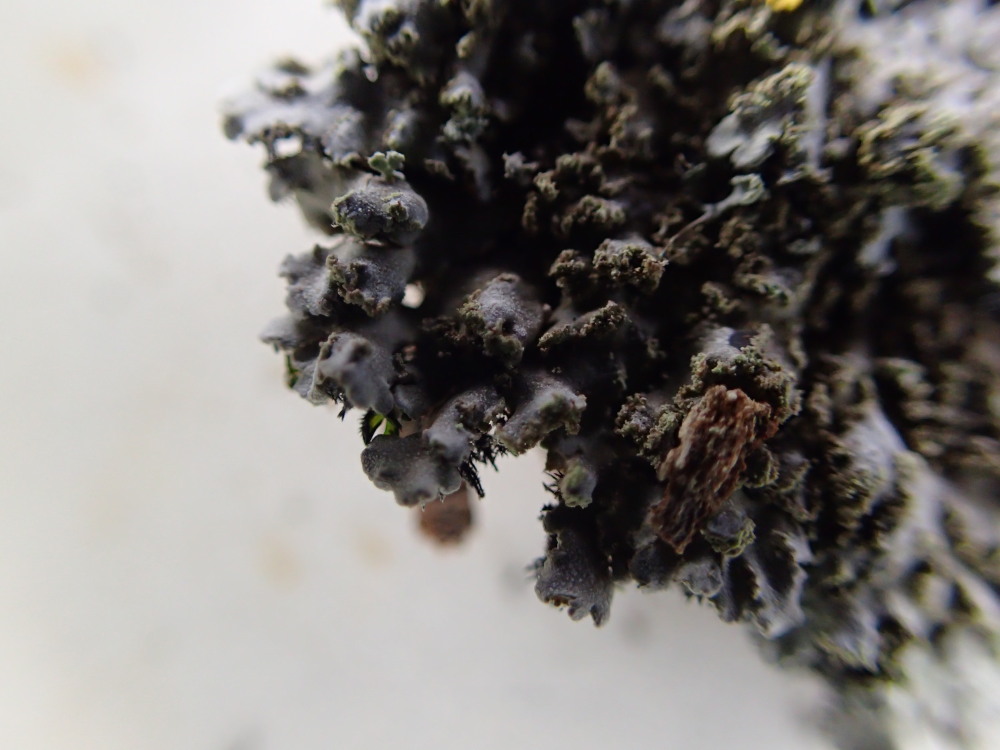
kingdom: Fungi
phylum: Ascomycota
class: Lecanoromycetes
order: Caliciales
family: Physciaceae
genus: Physconia
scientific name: Physconia perisidiosa
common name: liden dugrosetlav
